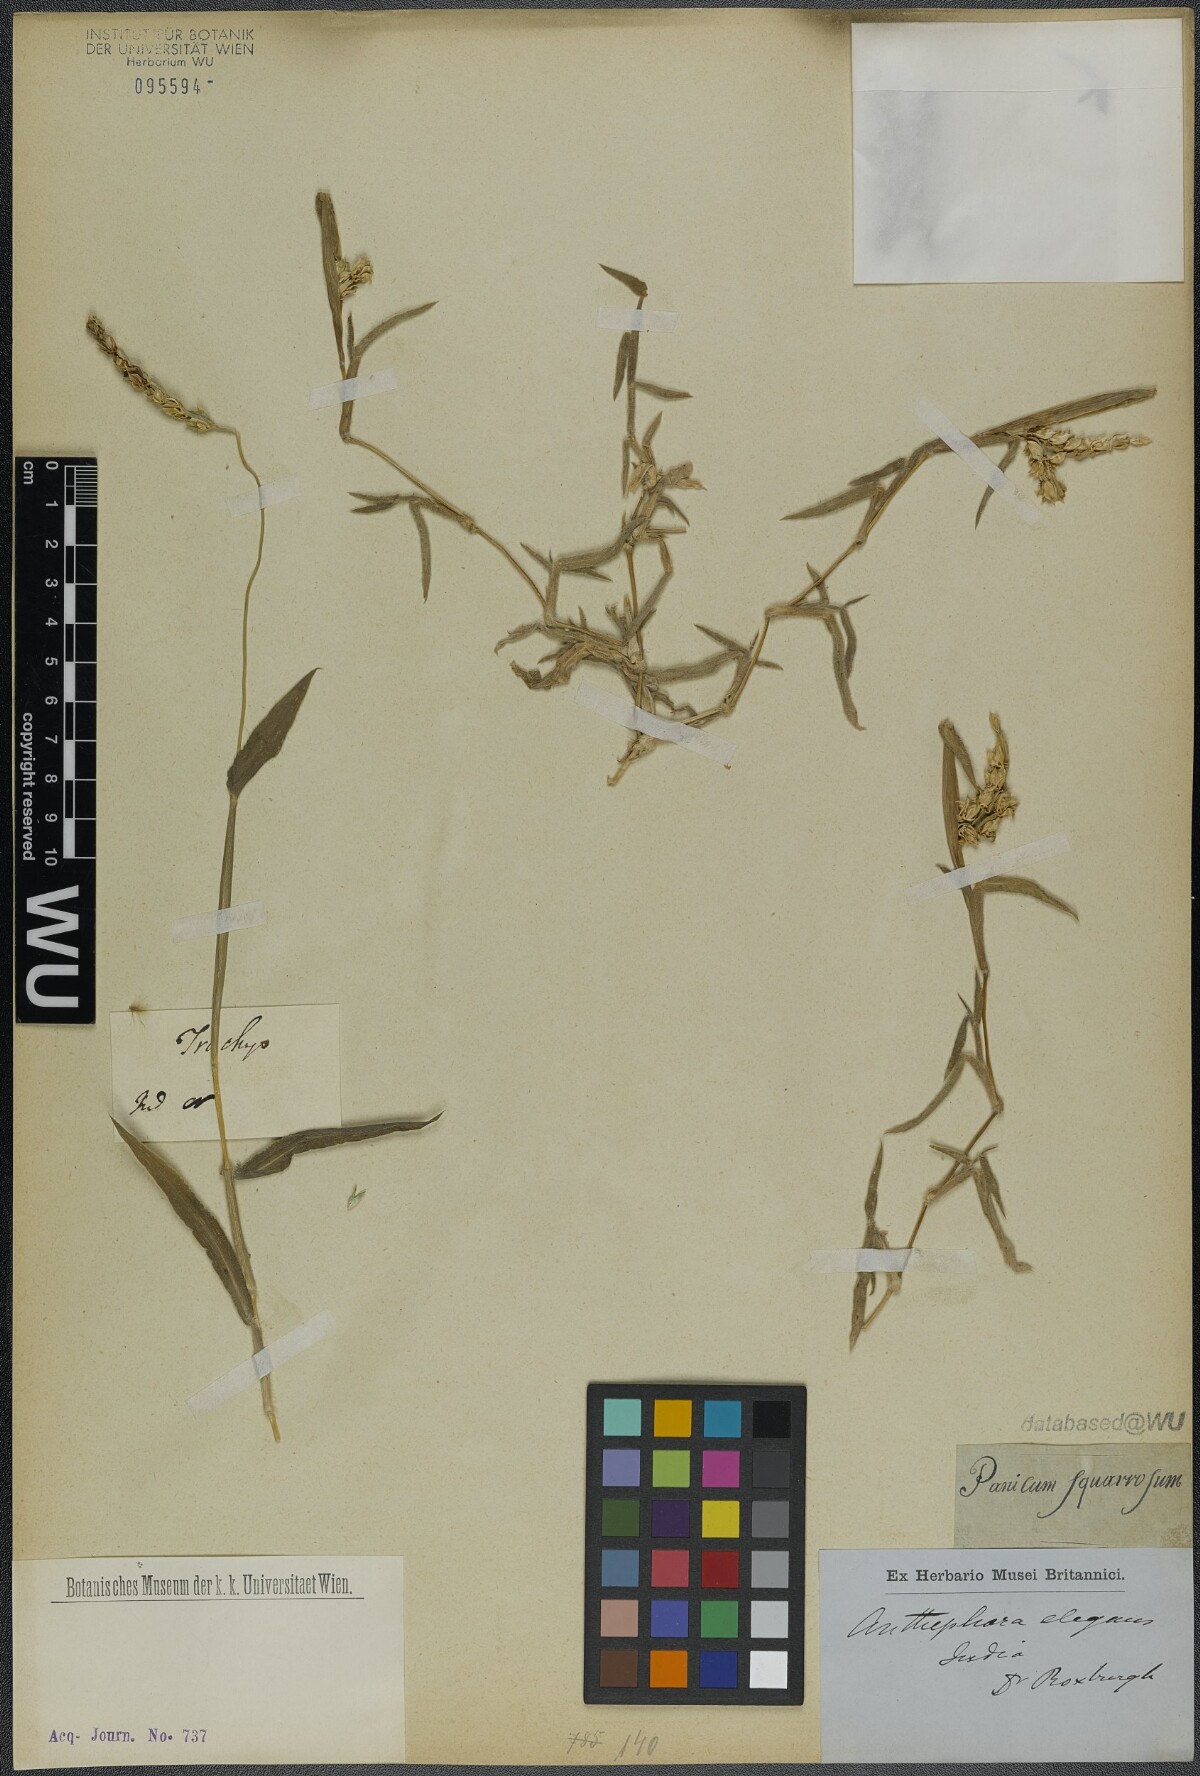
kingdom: Plantae
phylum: Tracheophyta
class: Liliopsida
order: Poales
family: Poaceae
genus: Anthephora
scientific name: Anthephora hermaphrodita
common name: Oldfield grass
